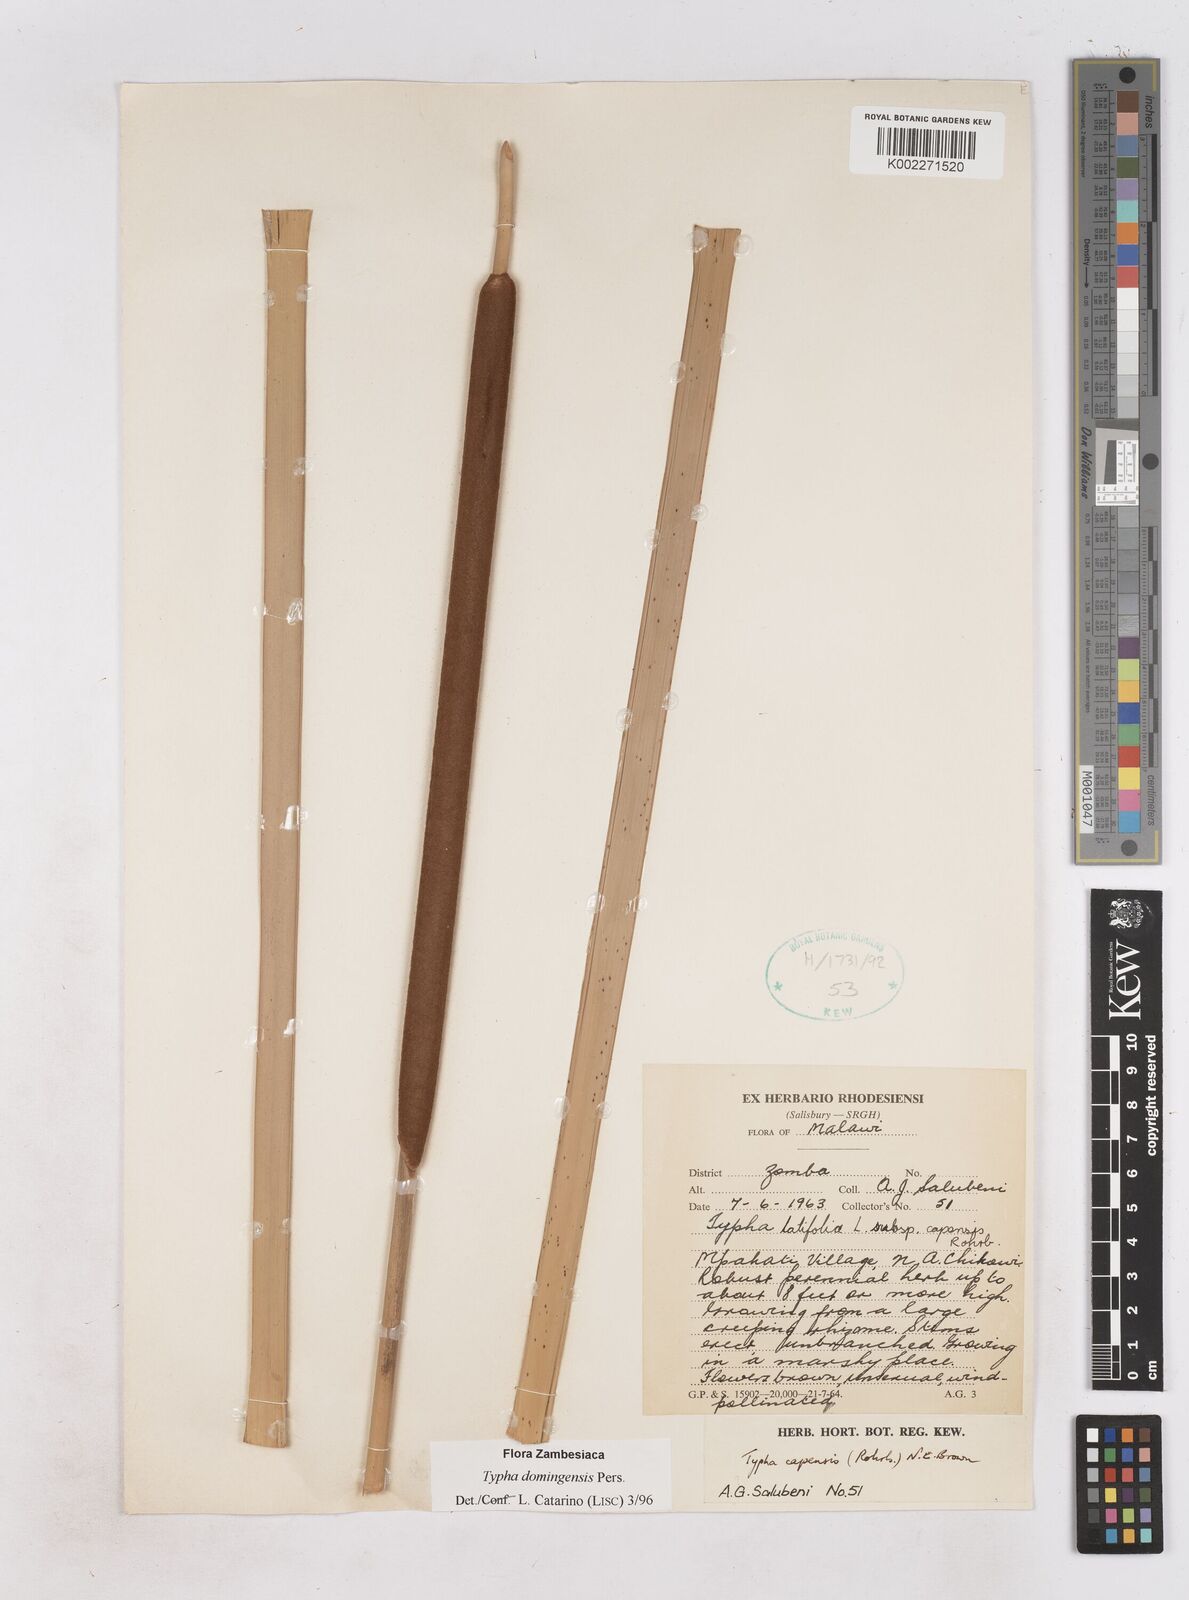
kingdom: Plantae
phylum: Tracheophyta
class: Liliopsida
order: Poales
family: Typhaceae
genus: Typha
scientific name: Typha domingensis
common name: Southern cattail
